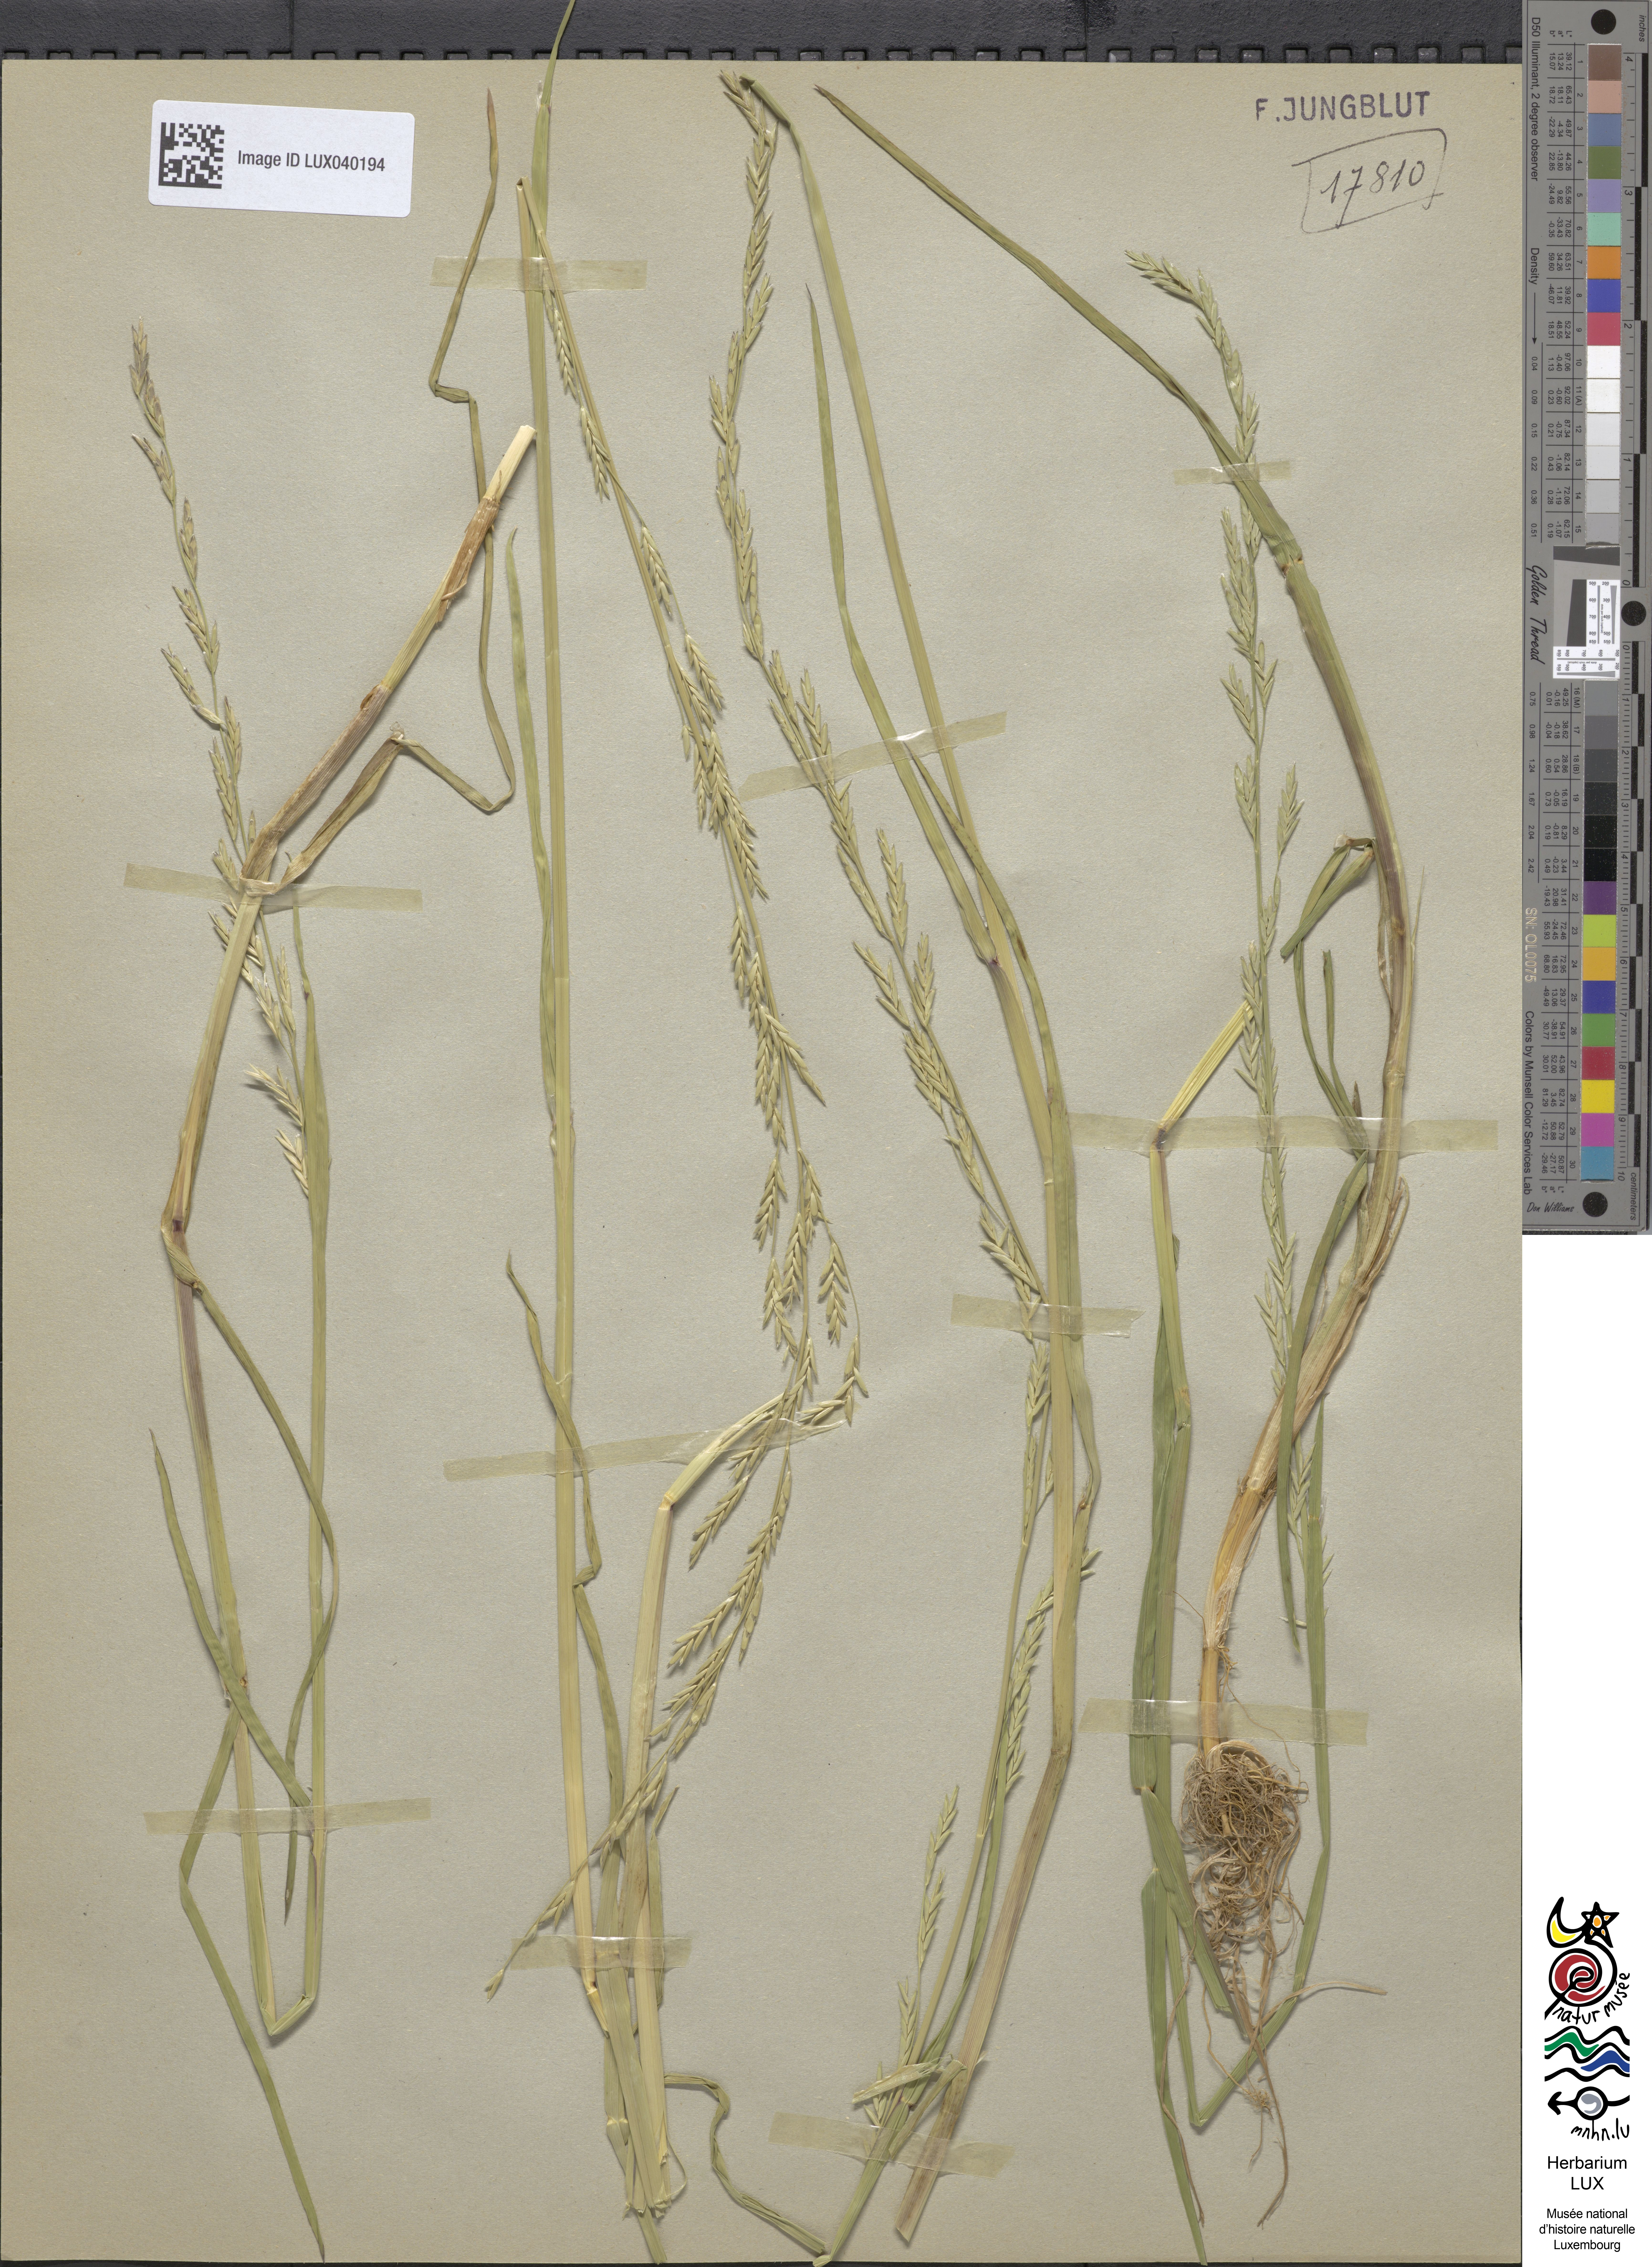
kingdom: Plantae
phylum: Tracheophyta
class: Liliopsida
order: Poales
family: Poaceae
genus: Glyceria
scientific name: Glyceria fluitans
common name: Floating sweet-grass
